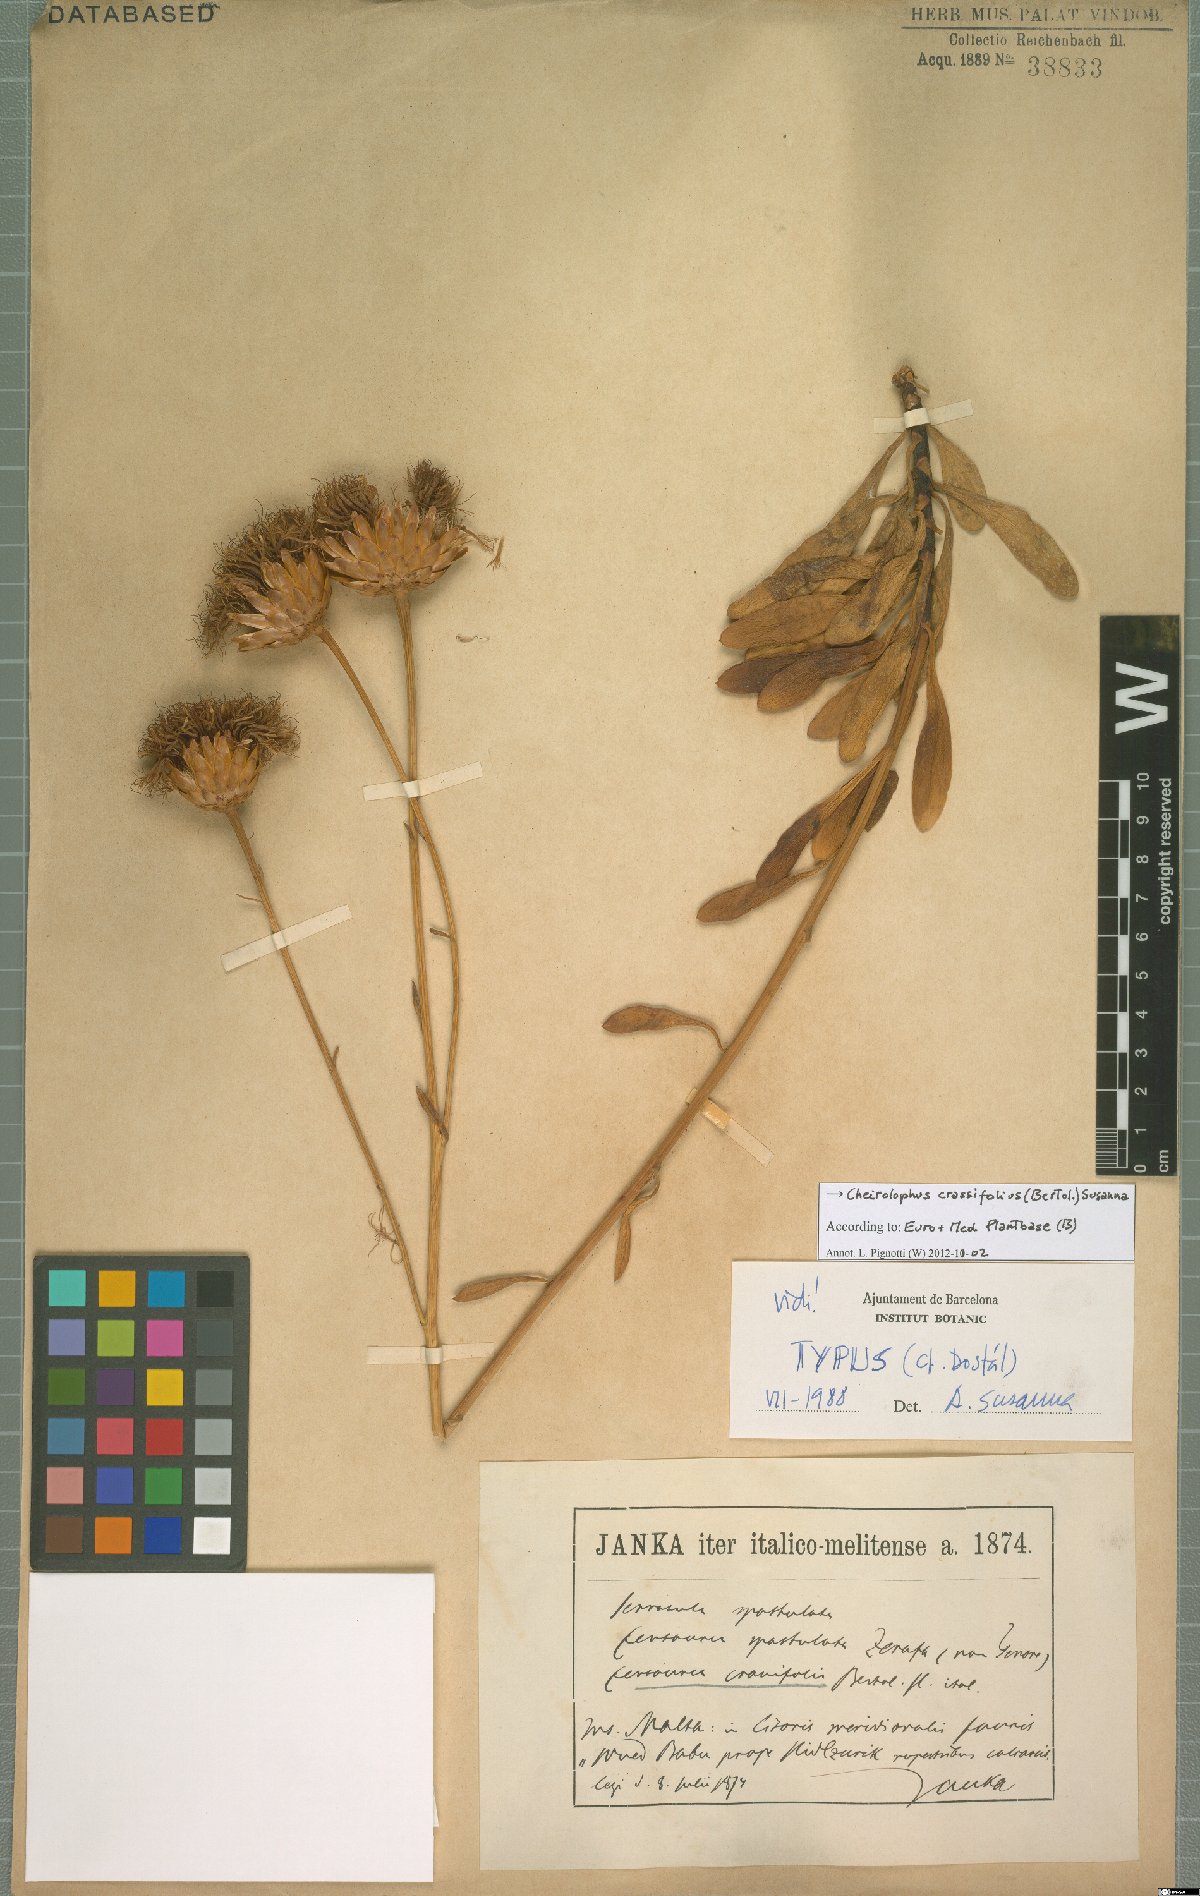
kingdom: Plantae
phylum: Tracheophyta
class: Magnoliopsida
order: Asterales
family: Asteraceae
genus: Cheirolophus
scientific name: Cheirolophus crassifolius
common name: Maltese centaury
